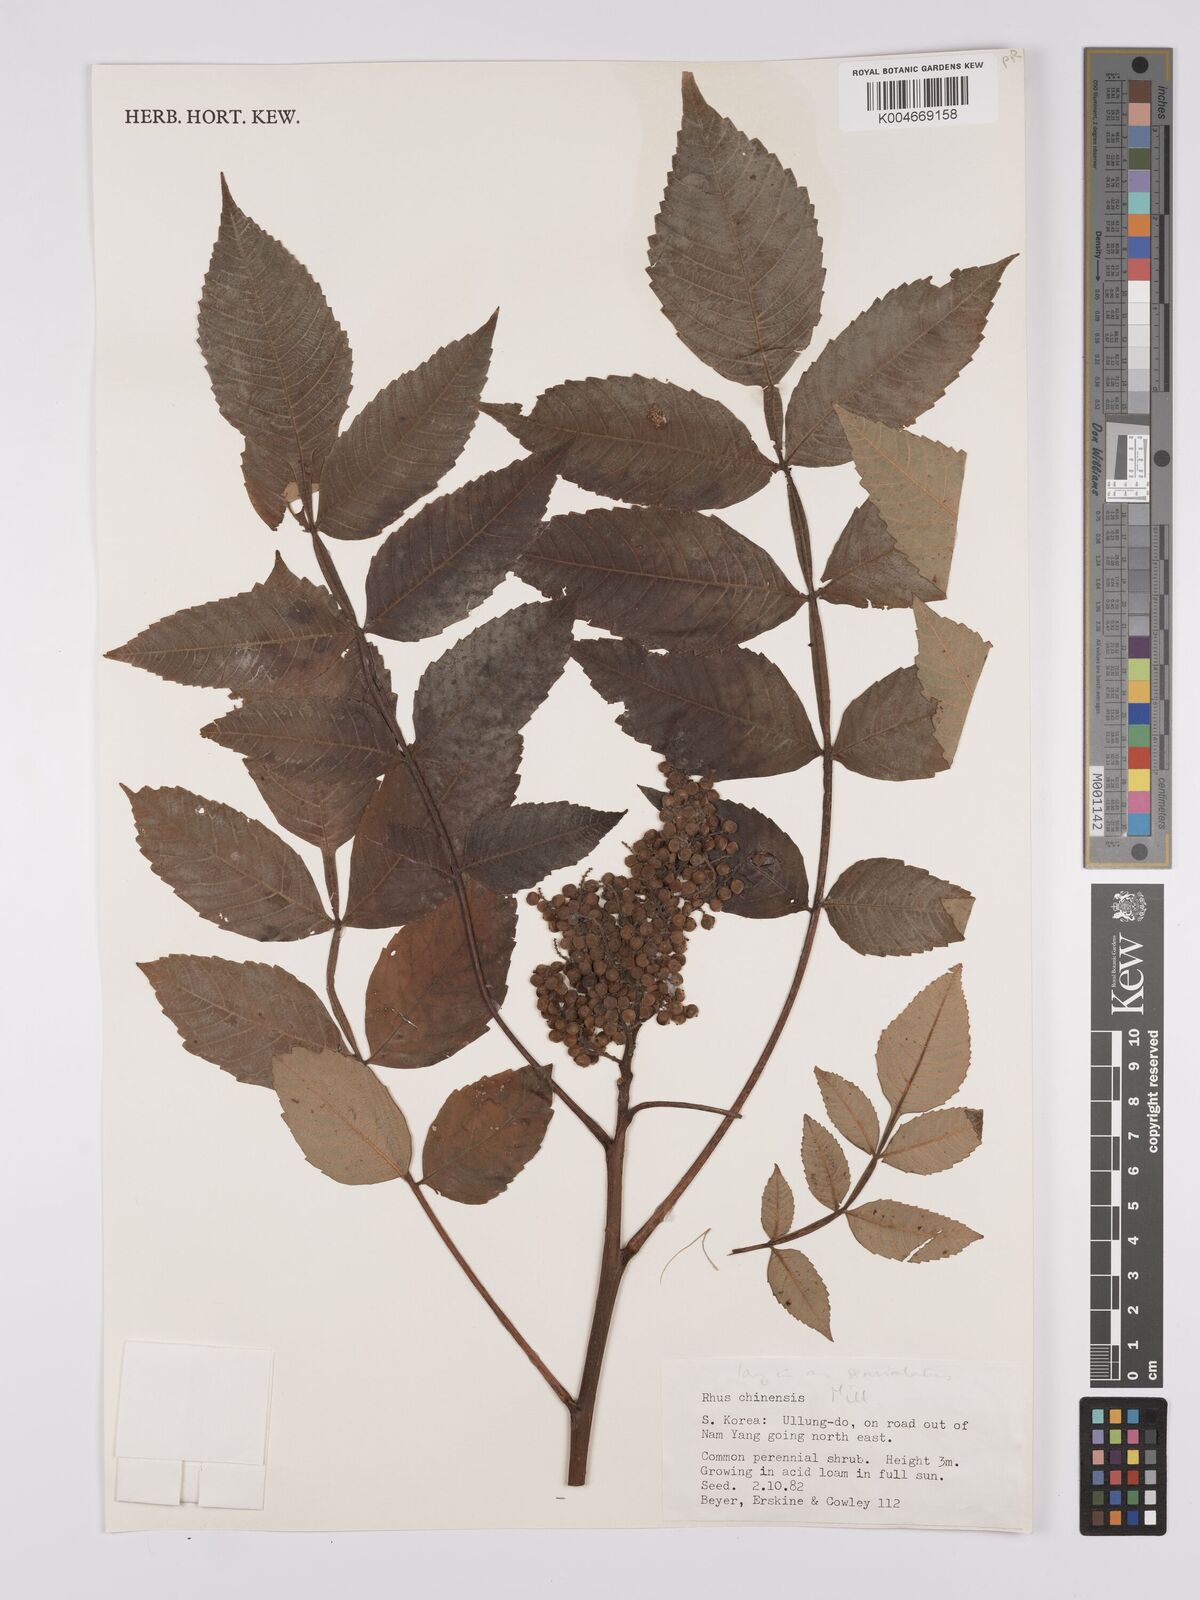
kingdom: Plantae
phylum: Tracheophyta
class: Magnoliopsida
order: Sapindales
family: Anacardiaceae
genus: Rhus
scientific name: Rhus
